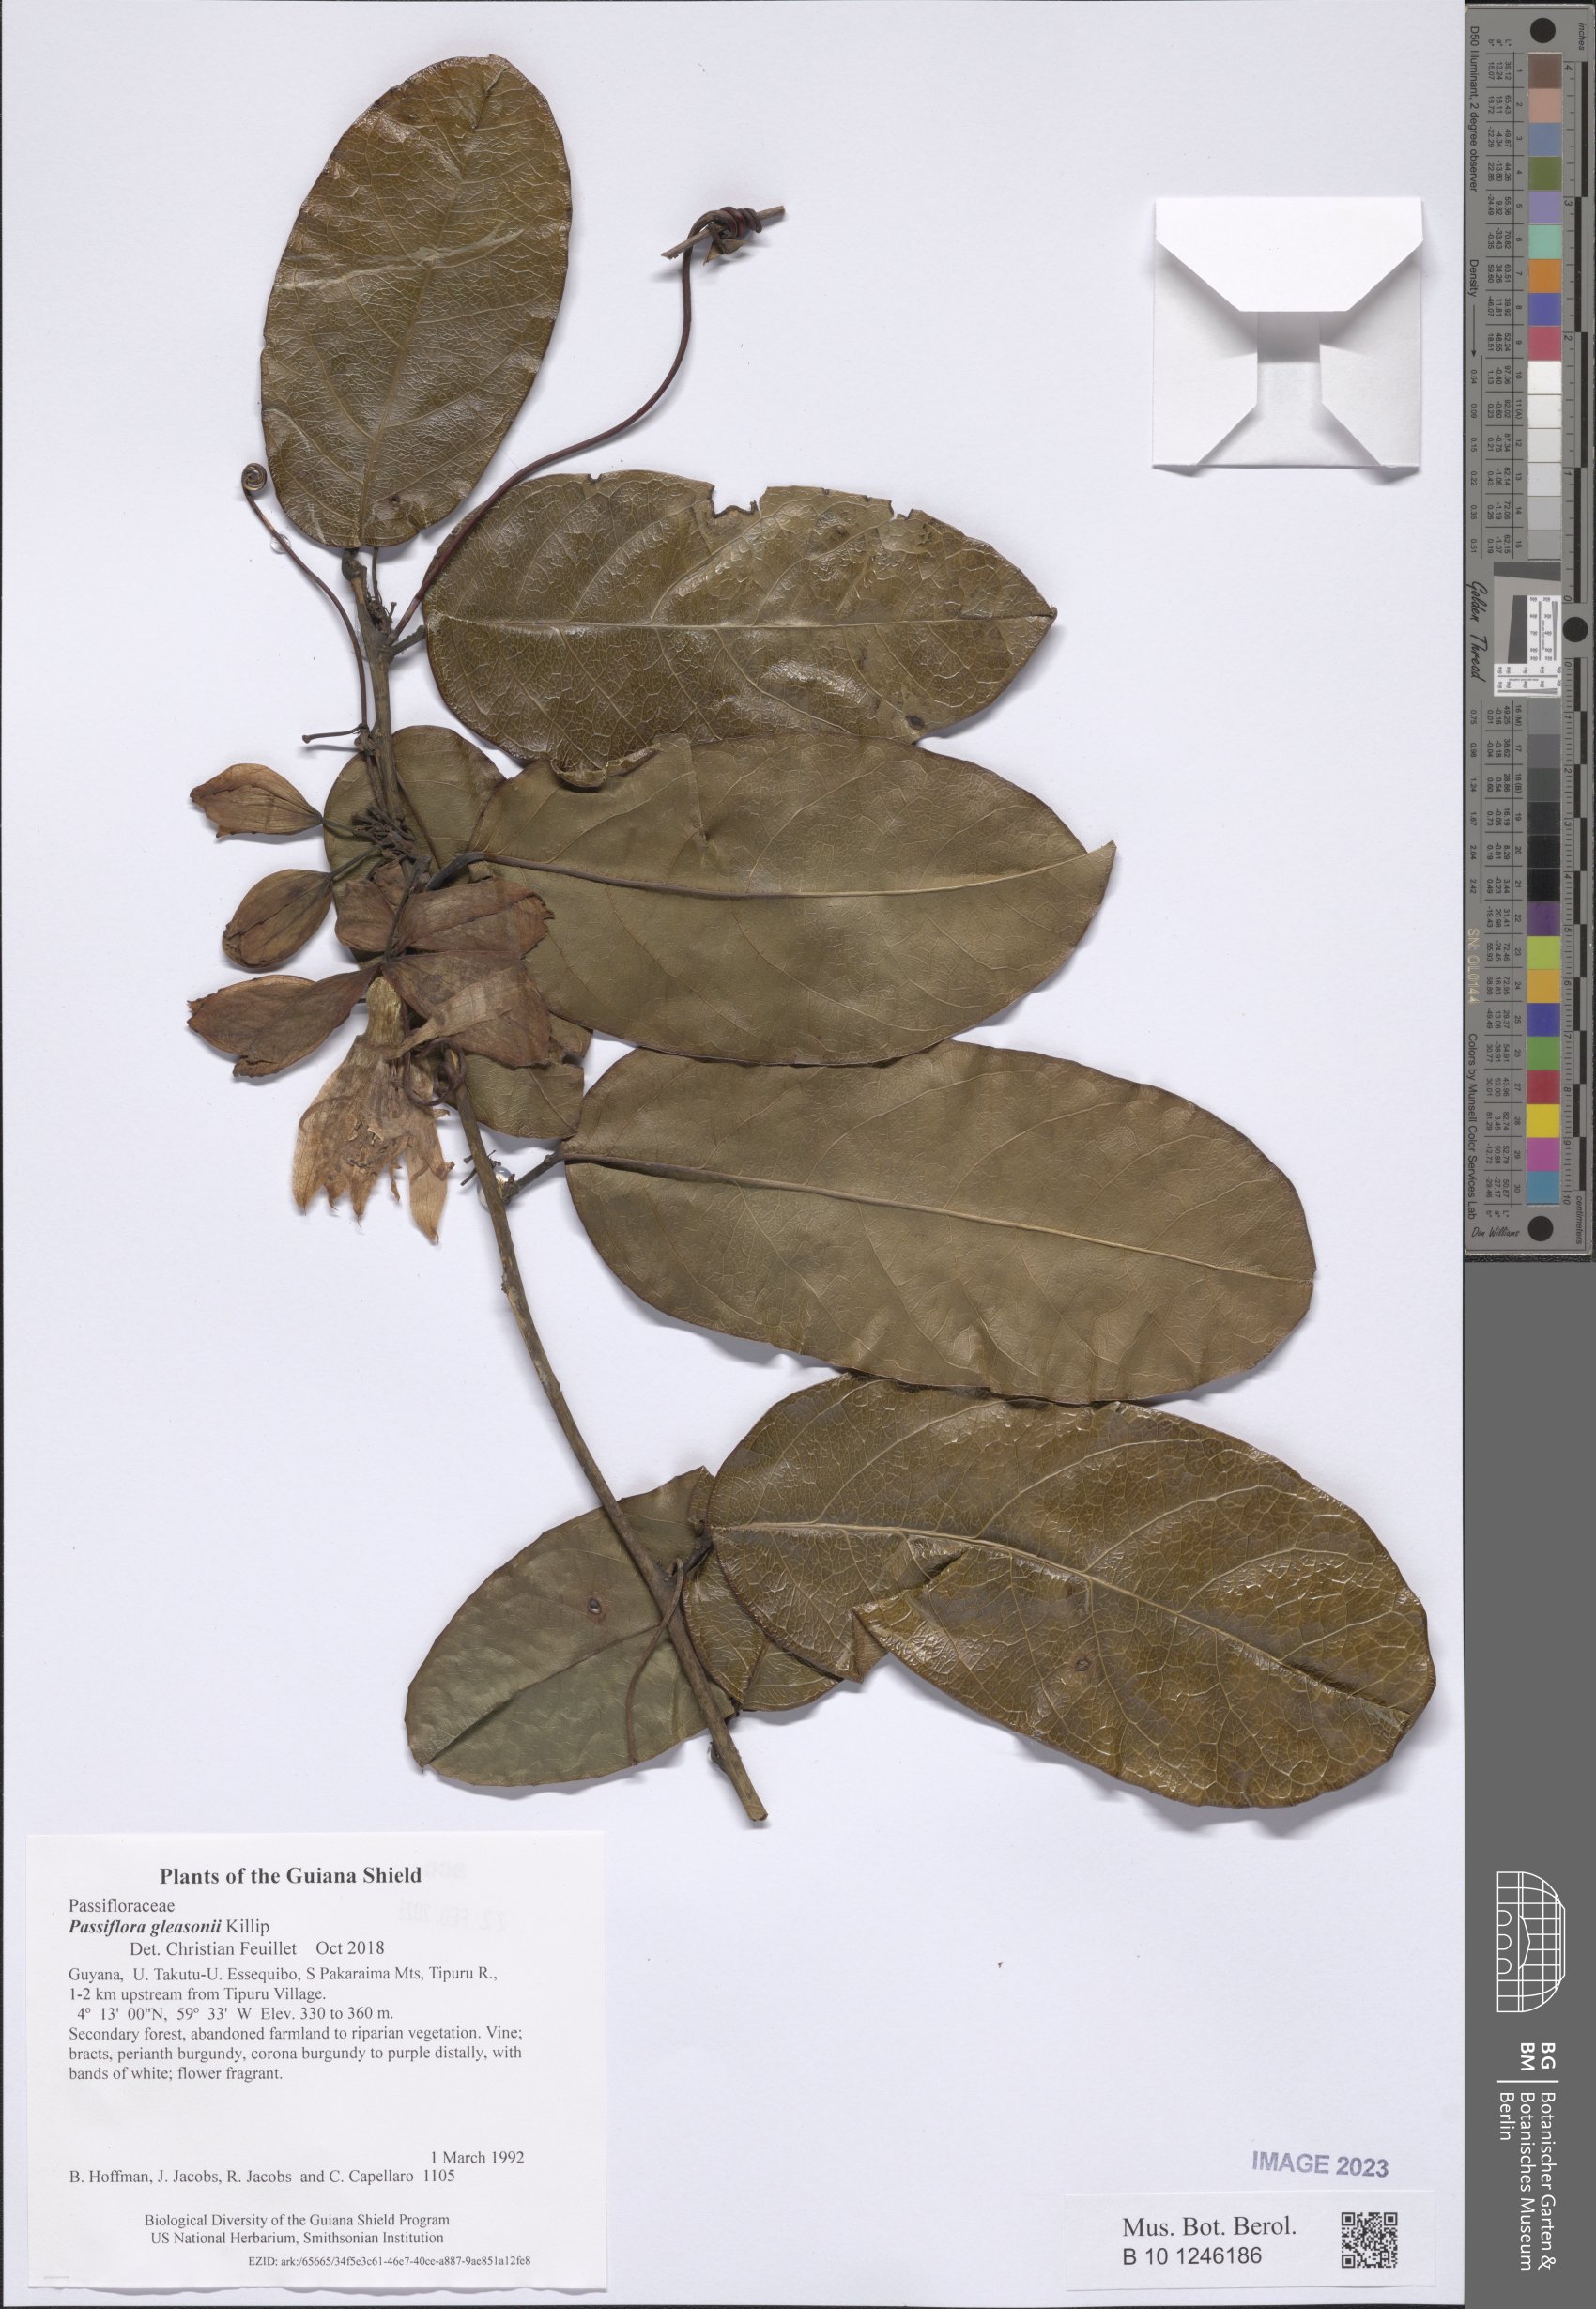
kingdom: Plantae
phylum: Tracheophyta
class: Magnoliopsida
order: Malpighiales
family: Passifloraceae
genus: Passiflora
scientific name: Passiflora acuminata
